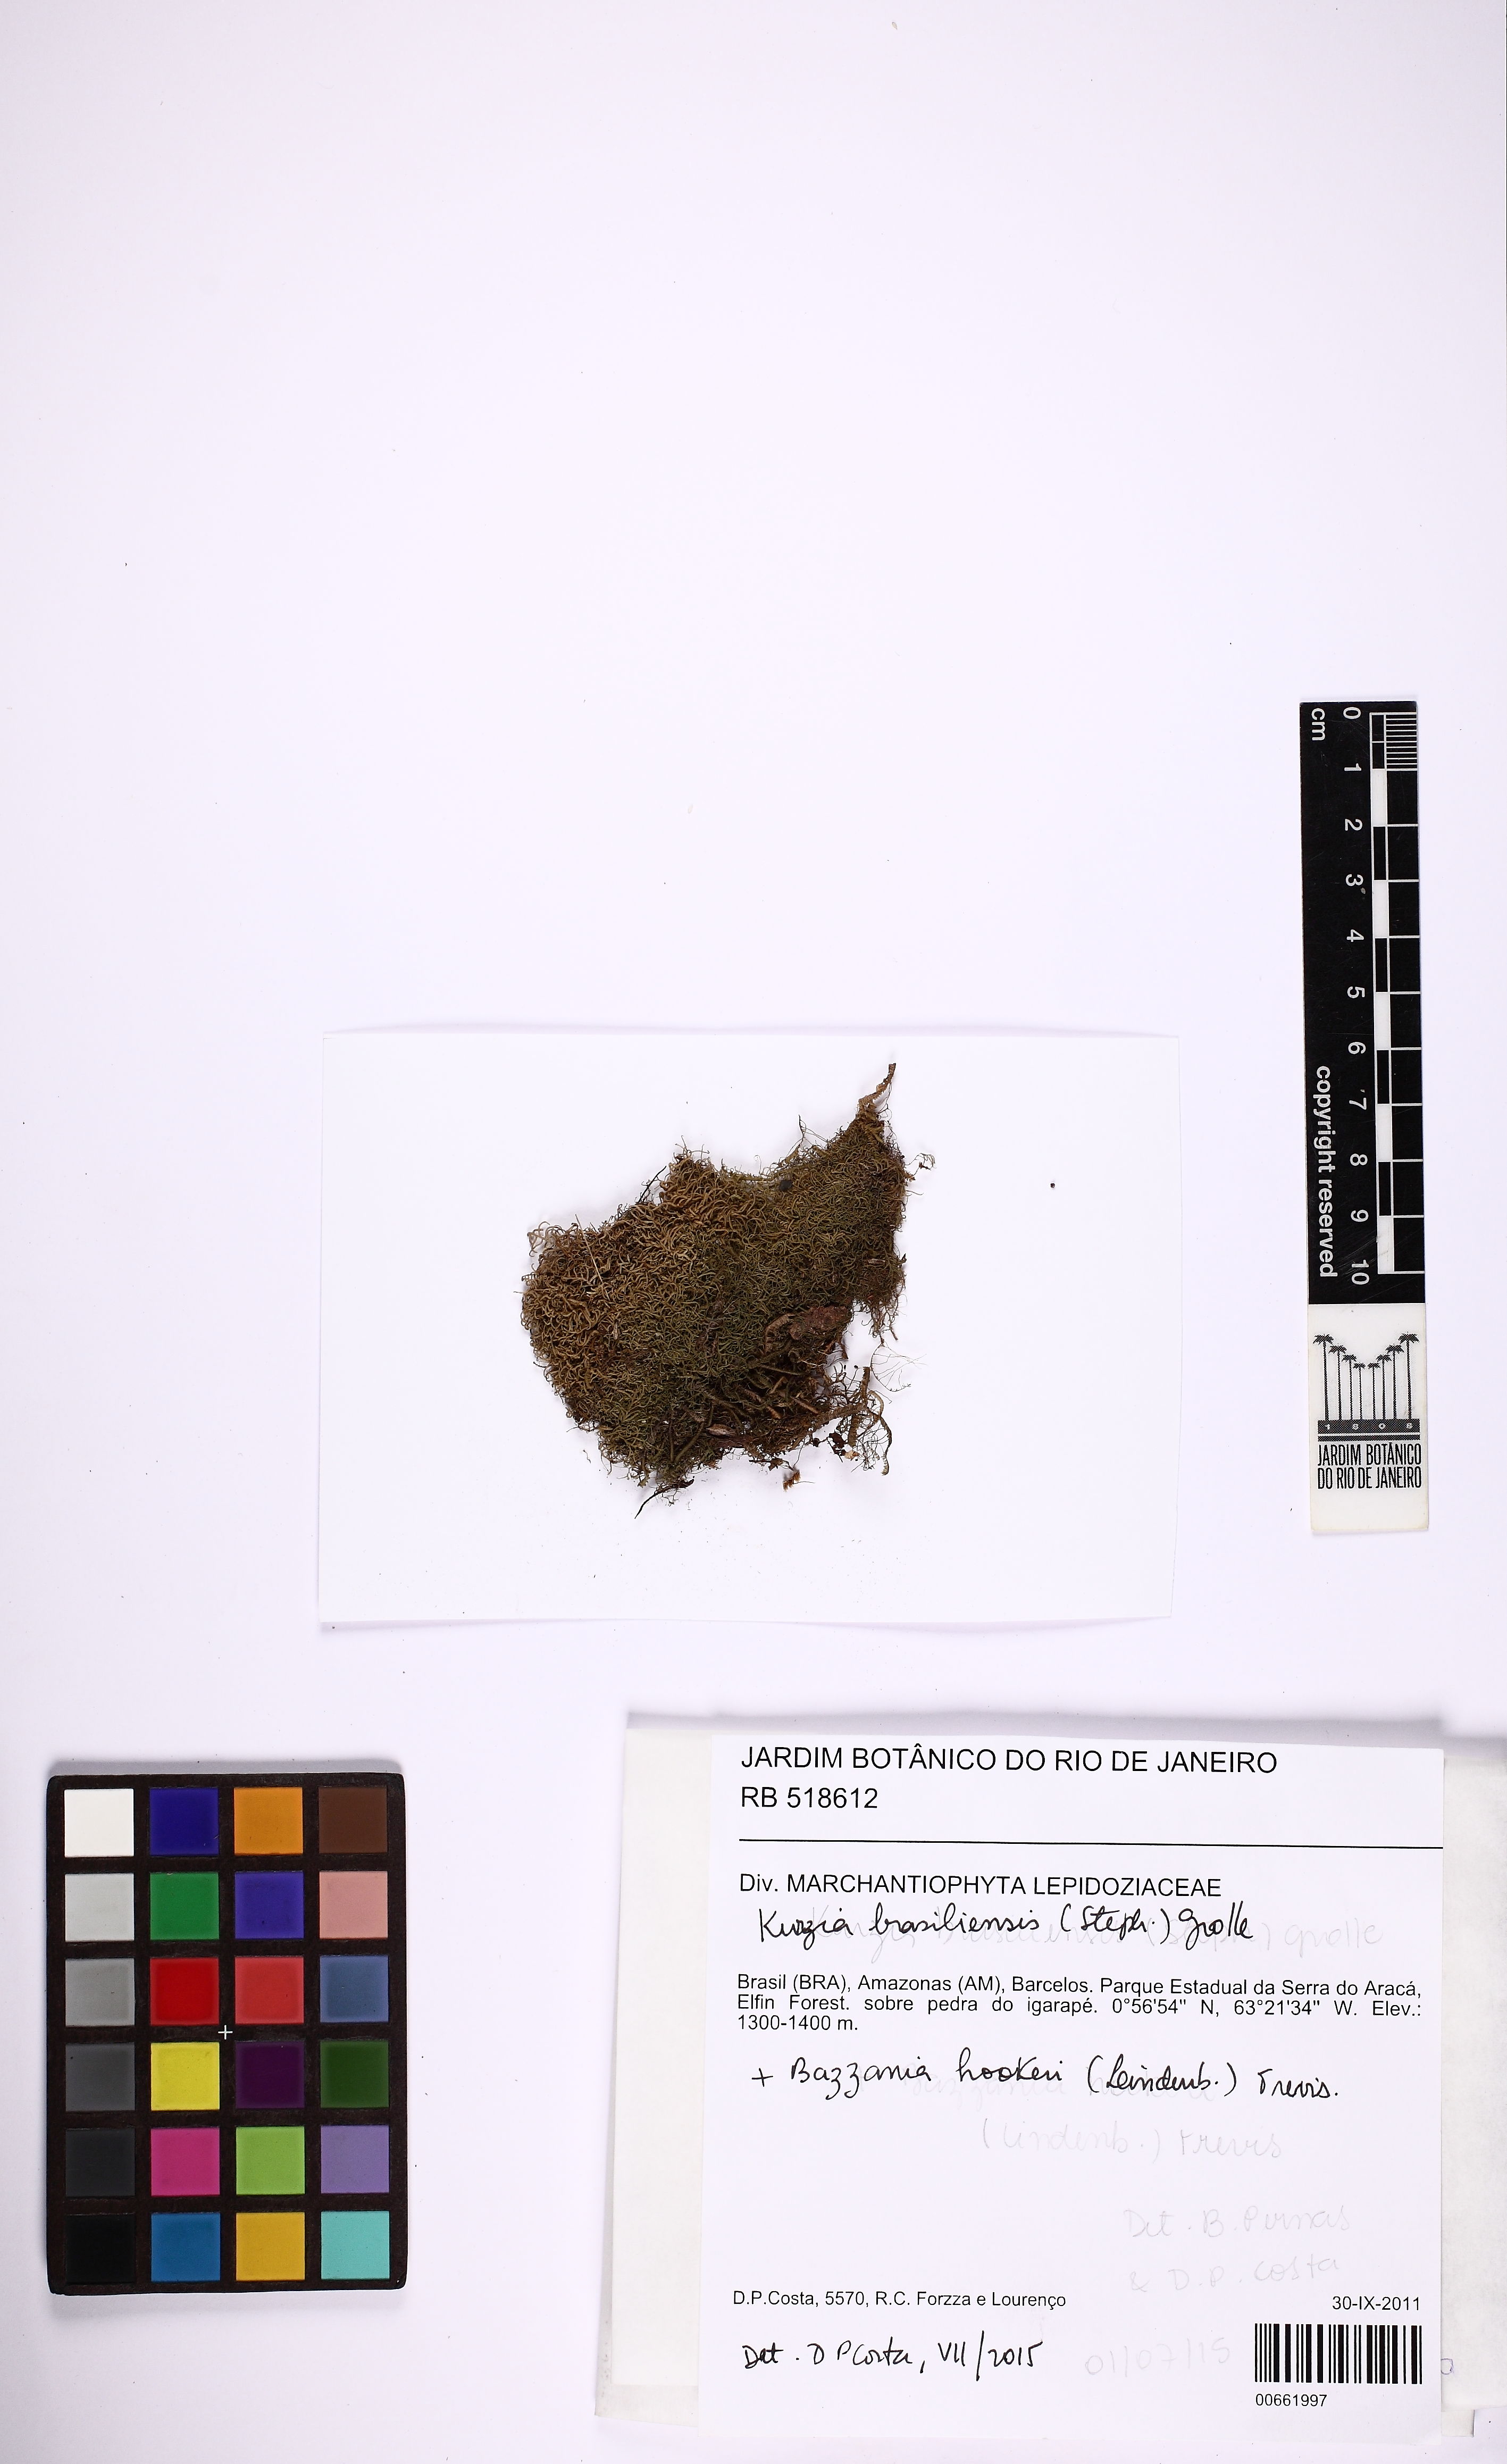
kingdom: Plantae
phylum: Marchantiophyta
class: Jungermanniopsida
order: Jungermanniales
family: Lepidoziaceae
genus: Kurzia
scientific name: Kurzia brasiliensis
